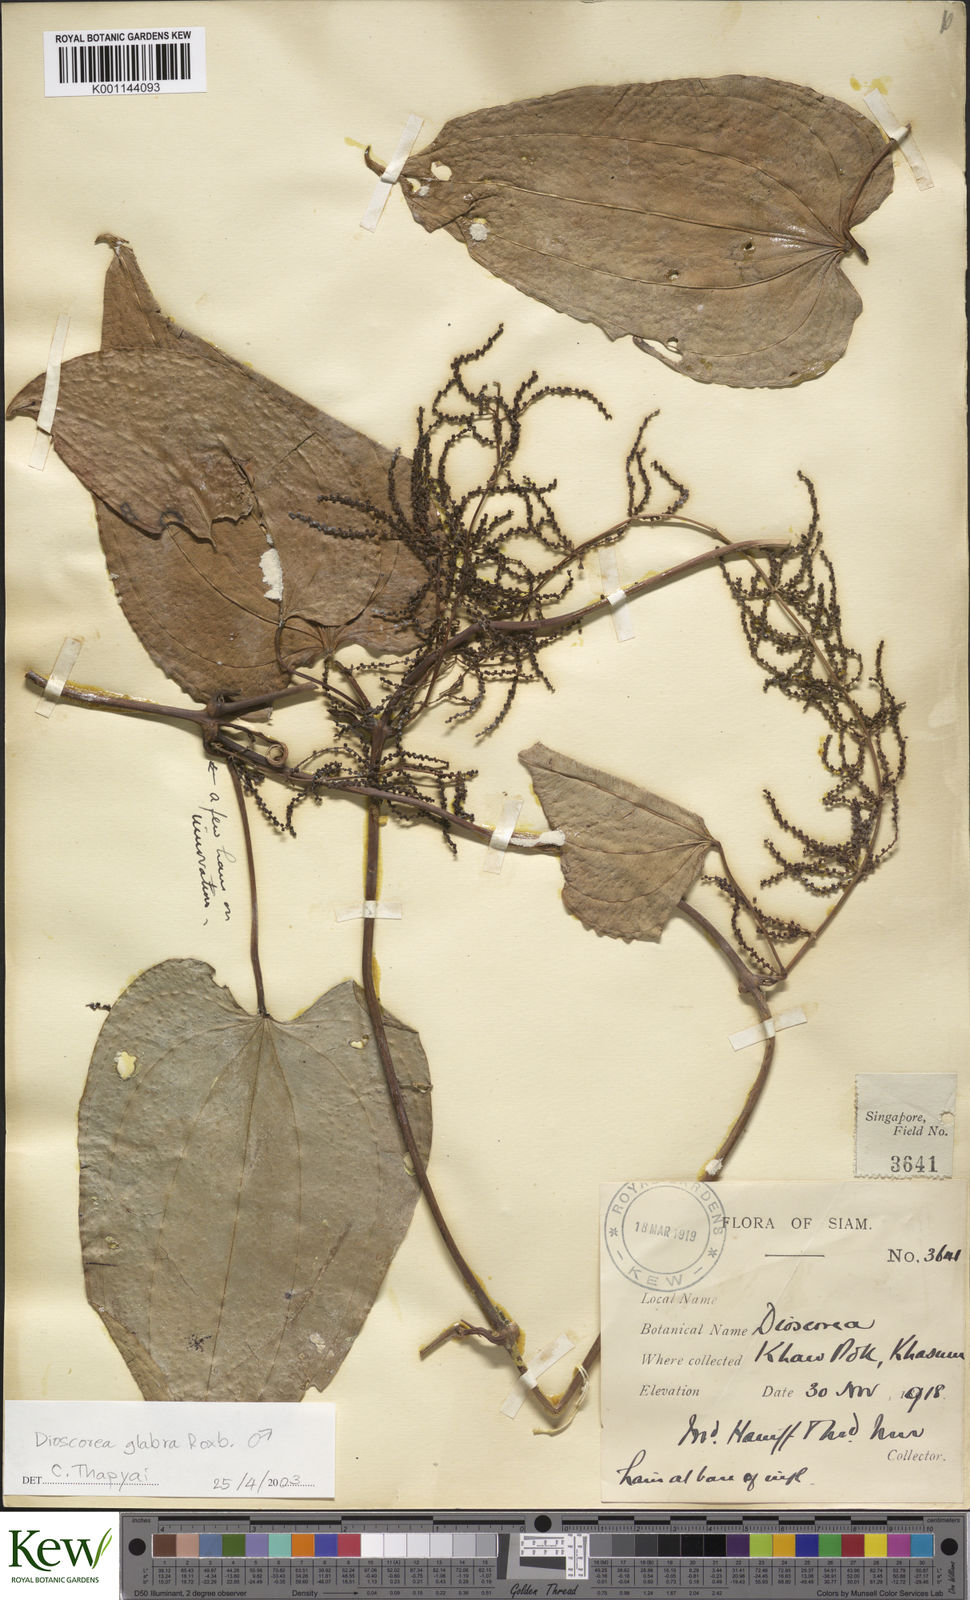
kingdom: Plantae
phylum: Tracheophyta
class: Liliopsida
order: Dioscoreales
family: Dioscoreaceae
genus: Dioscorea
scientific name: Dioscorea glabra
